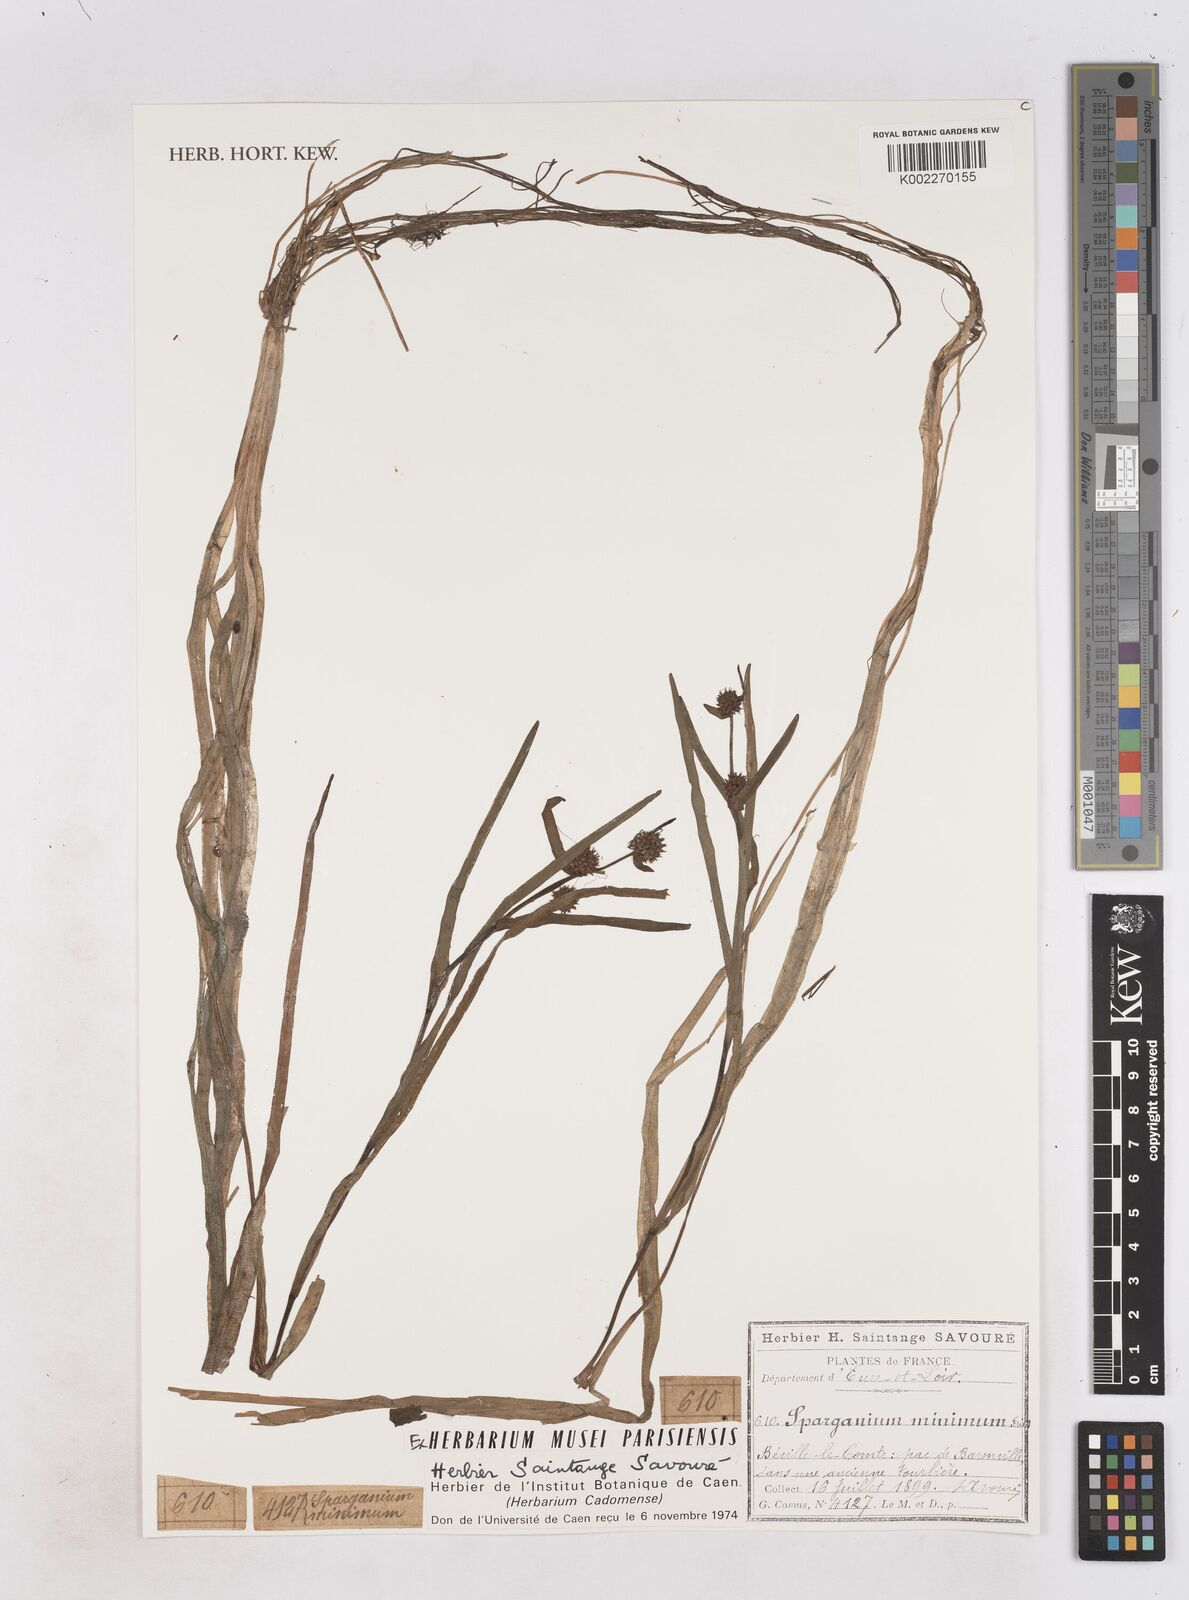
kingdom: Plantae
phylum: Tracheophyta
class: Liliopsida
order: Poales
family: Typhaceae
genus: Sparganium
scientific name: Sparganium natans
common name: Least bur-reed
